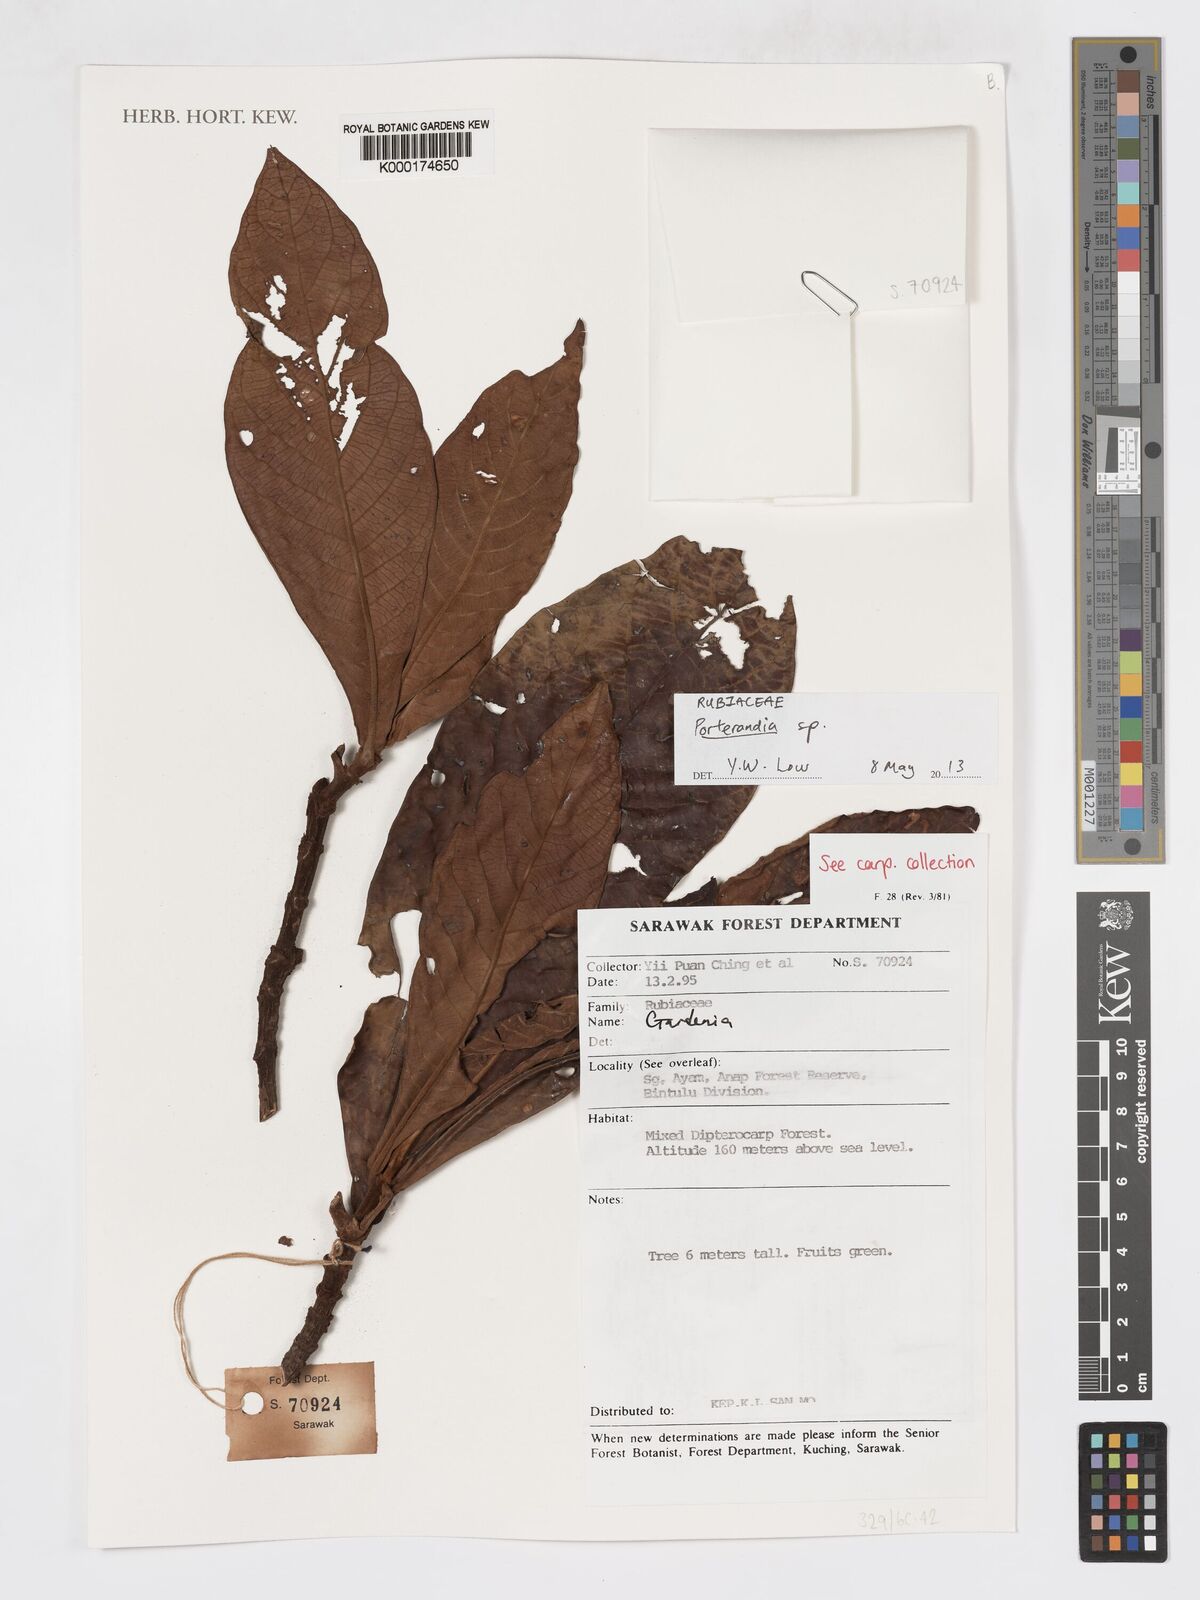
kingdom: Plantae
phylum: Tracheophyta
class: Magnoliopsida
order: Gentianales
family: Rubiaceae
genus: Porterandia
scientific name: Porterandia
